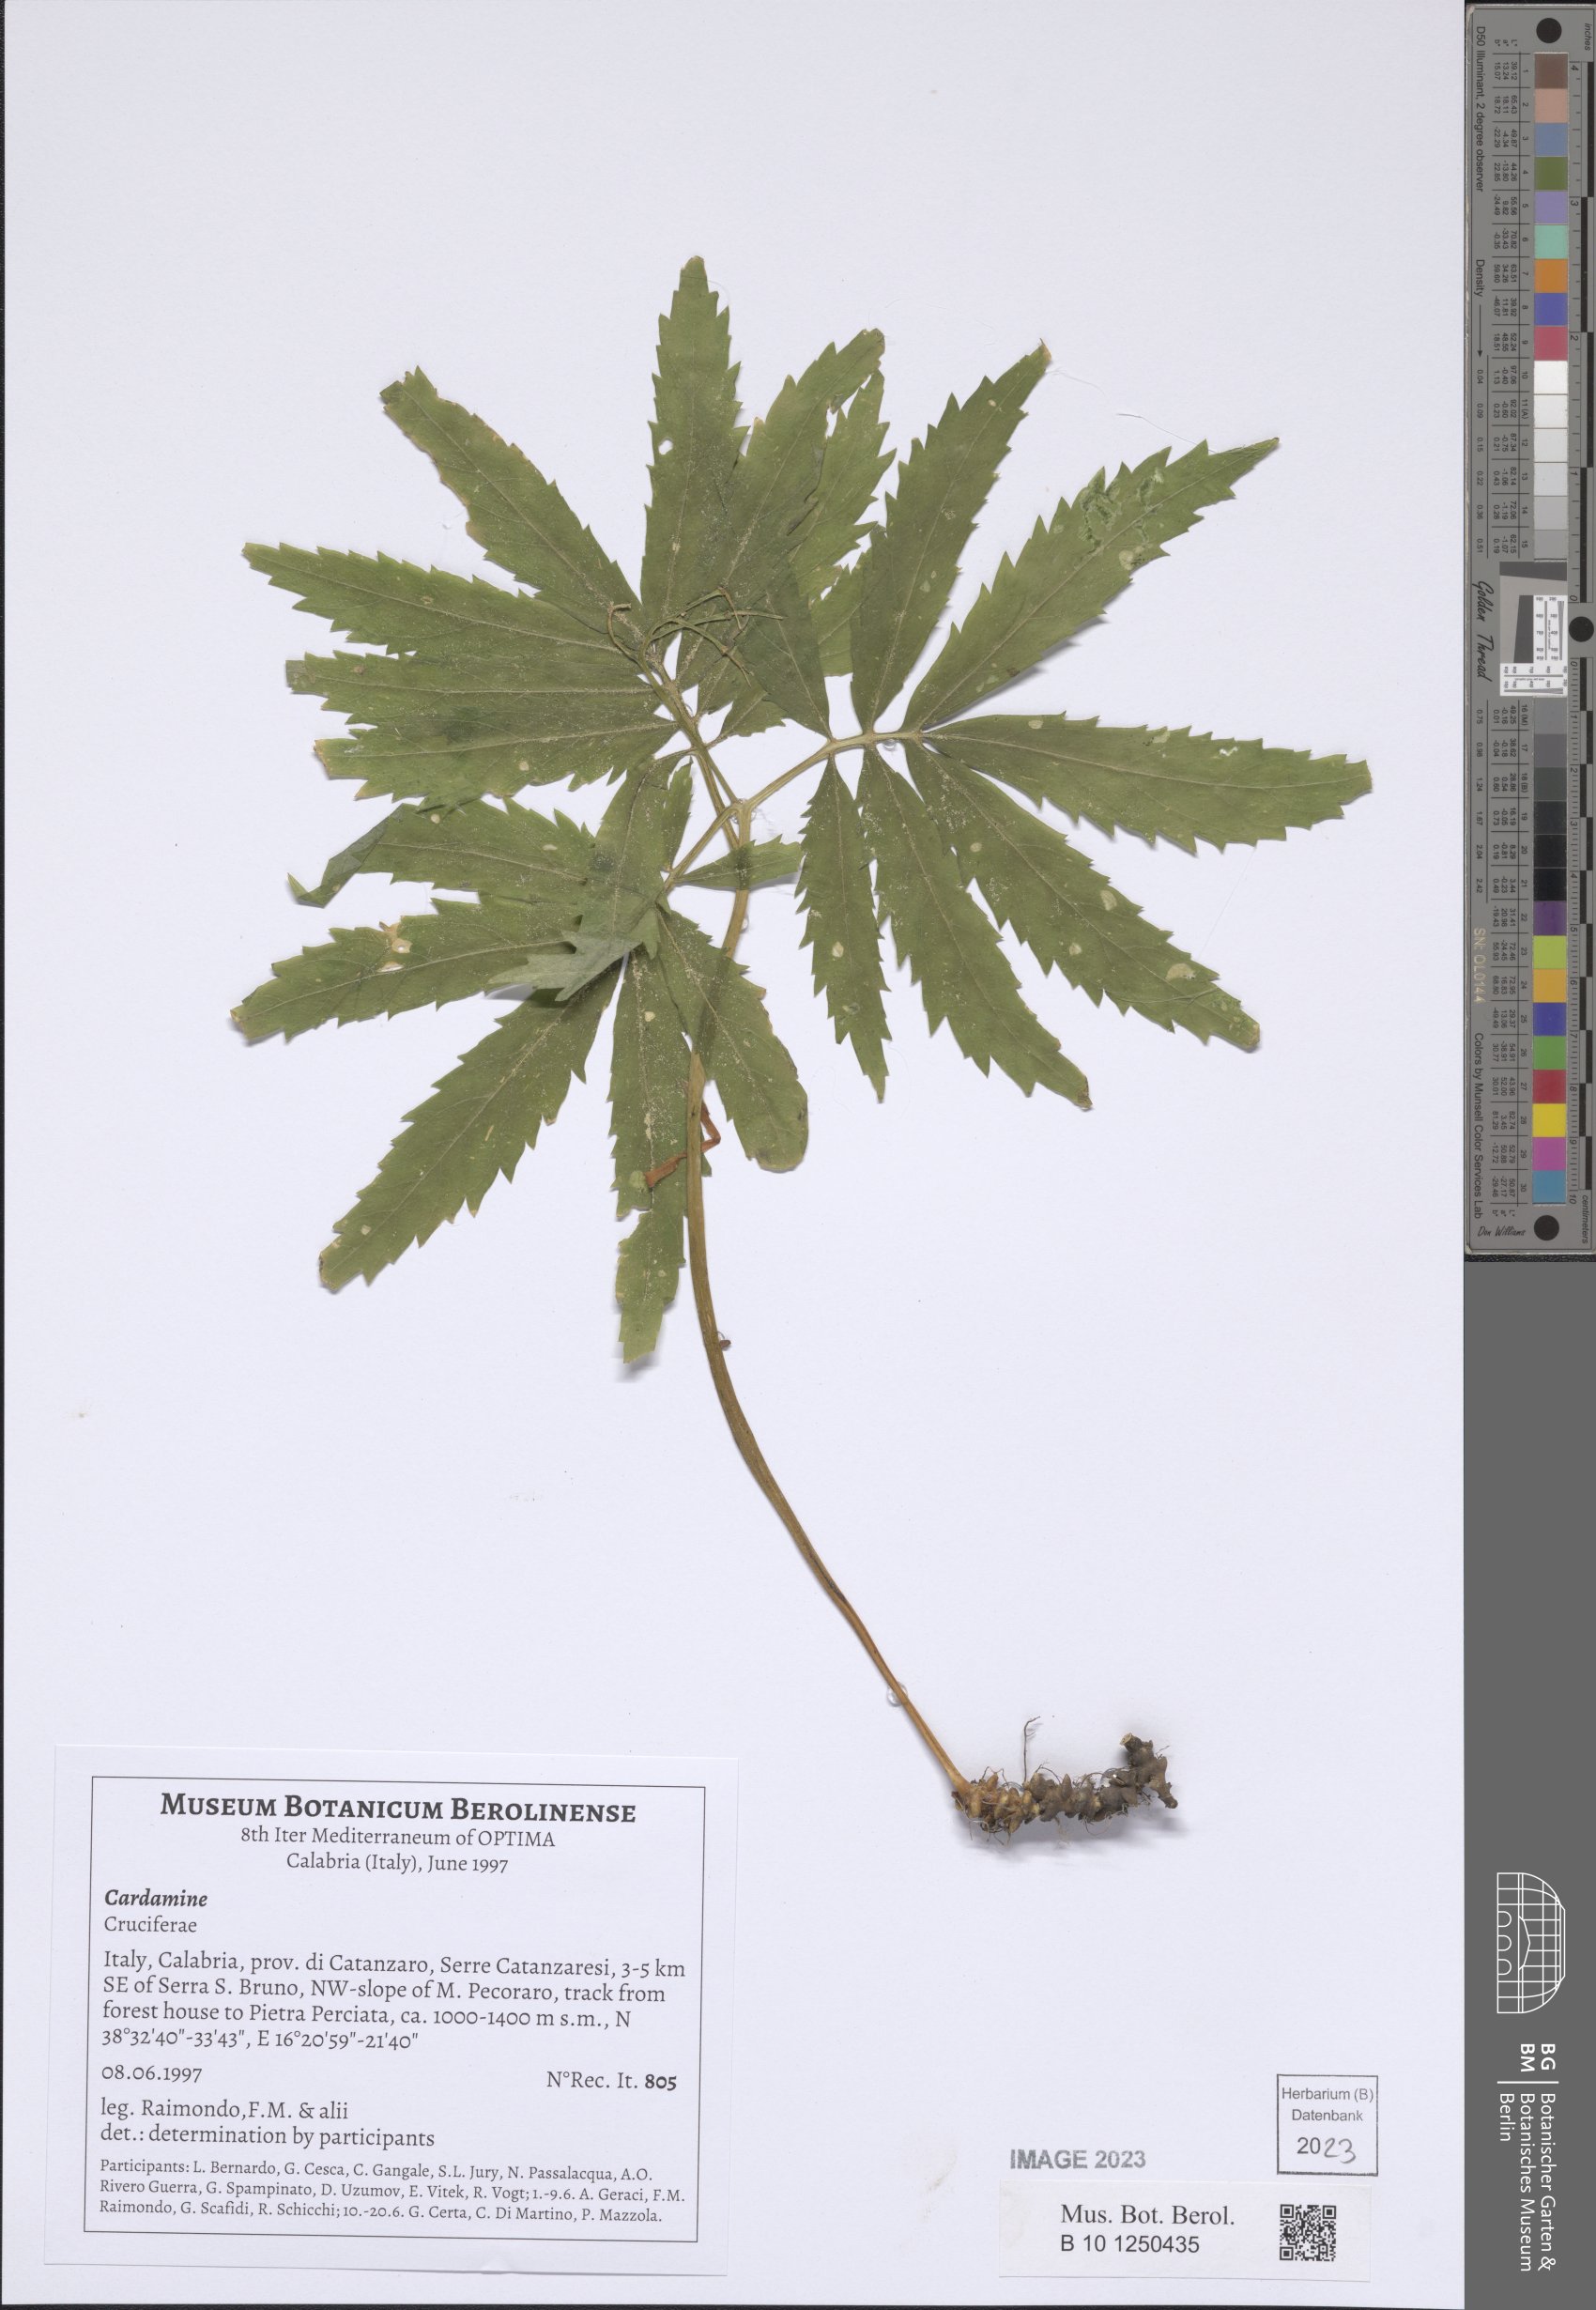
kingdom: Plantae
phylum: Tracheophyta
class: Magnoliopsida
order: Brassicales
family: Brassicaceae
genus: Cardamine
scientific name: Cardamine
